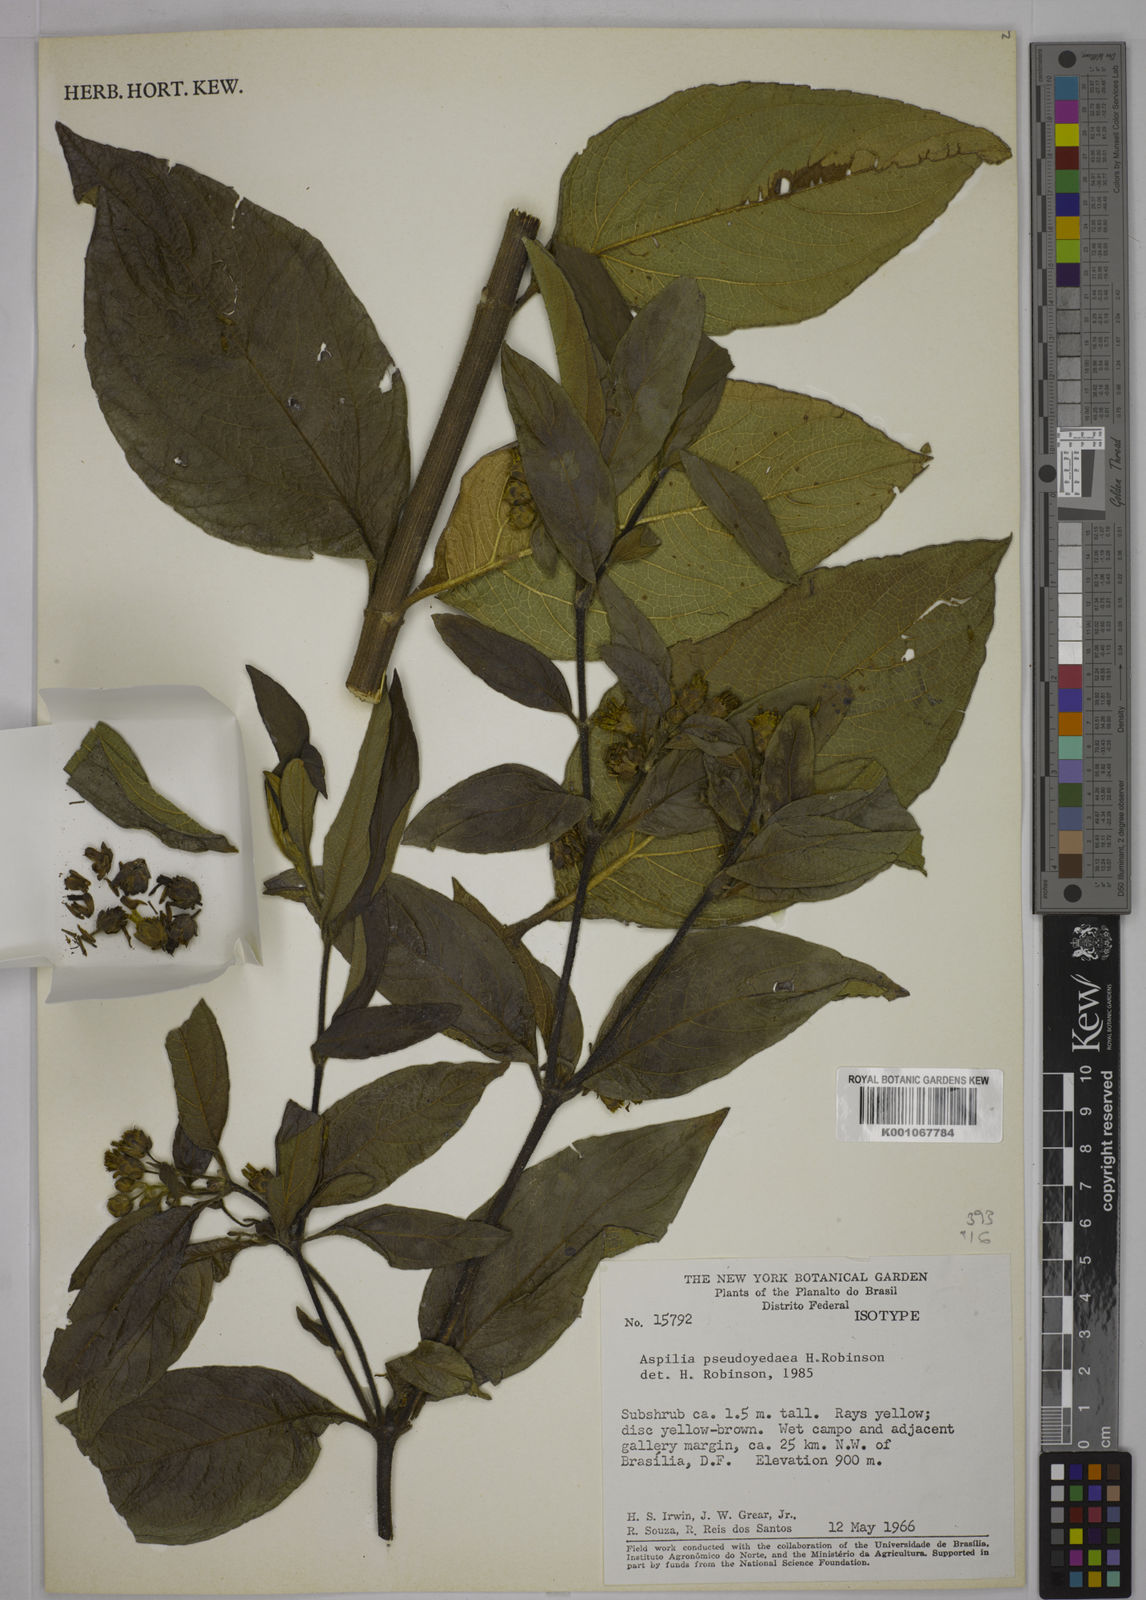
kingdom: Plantae
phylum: Tracheophyta
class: Magnoliopsida
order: Asterales
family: Asteraceae
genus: Wedelia
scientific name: Wedelia pseudoyedaea
